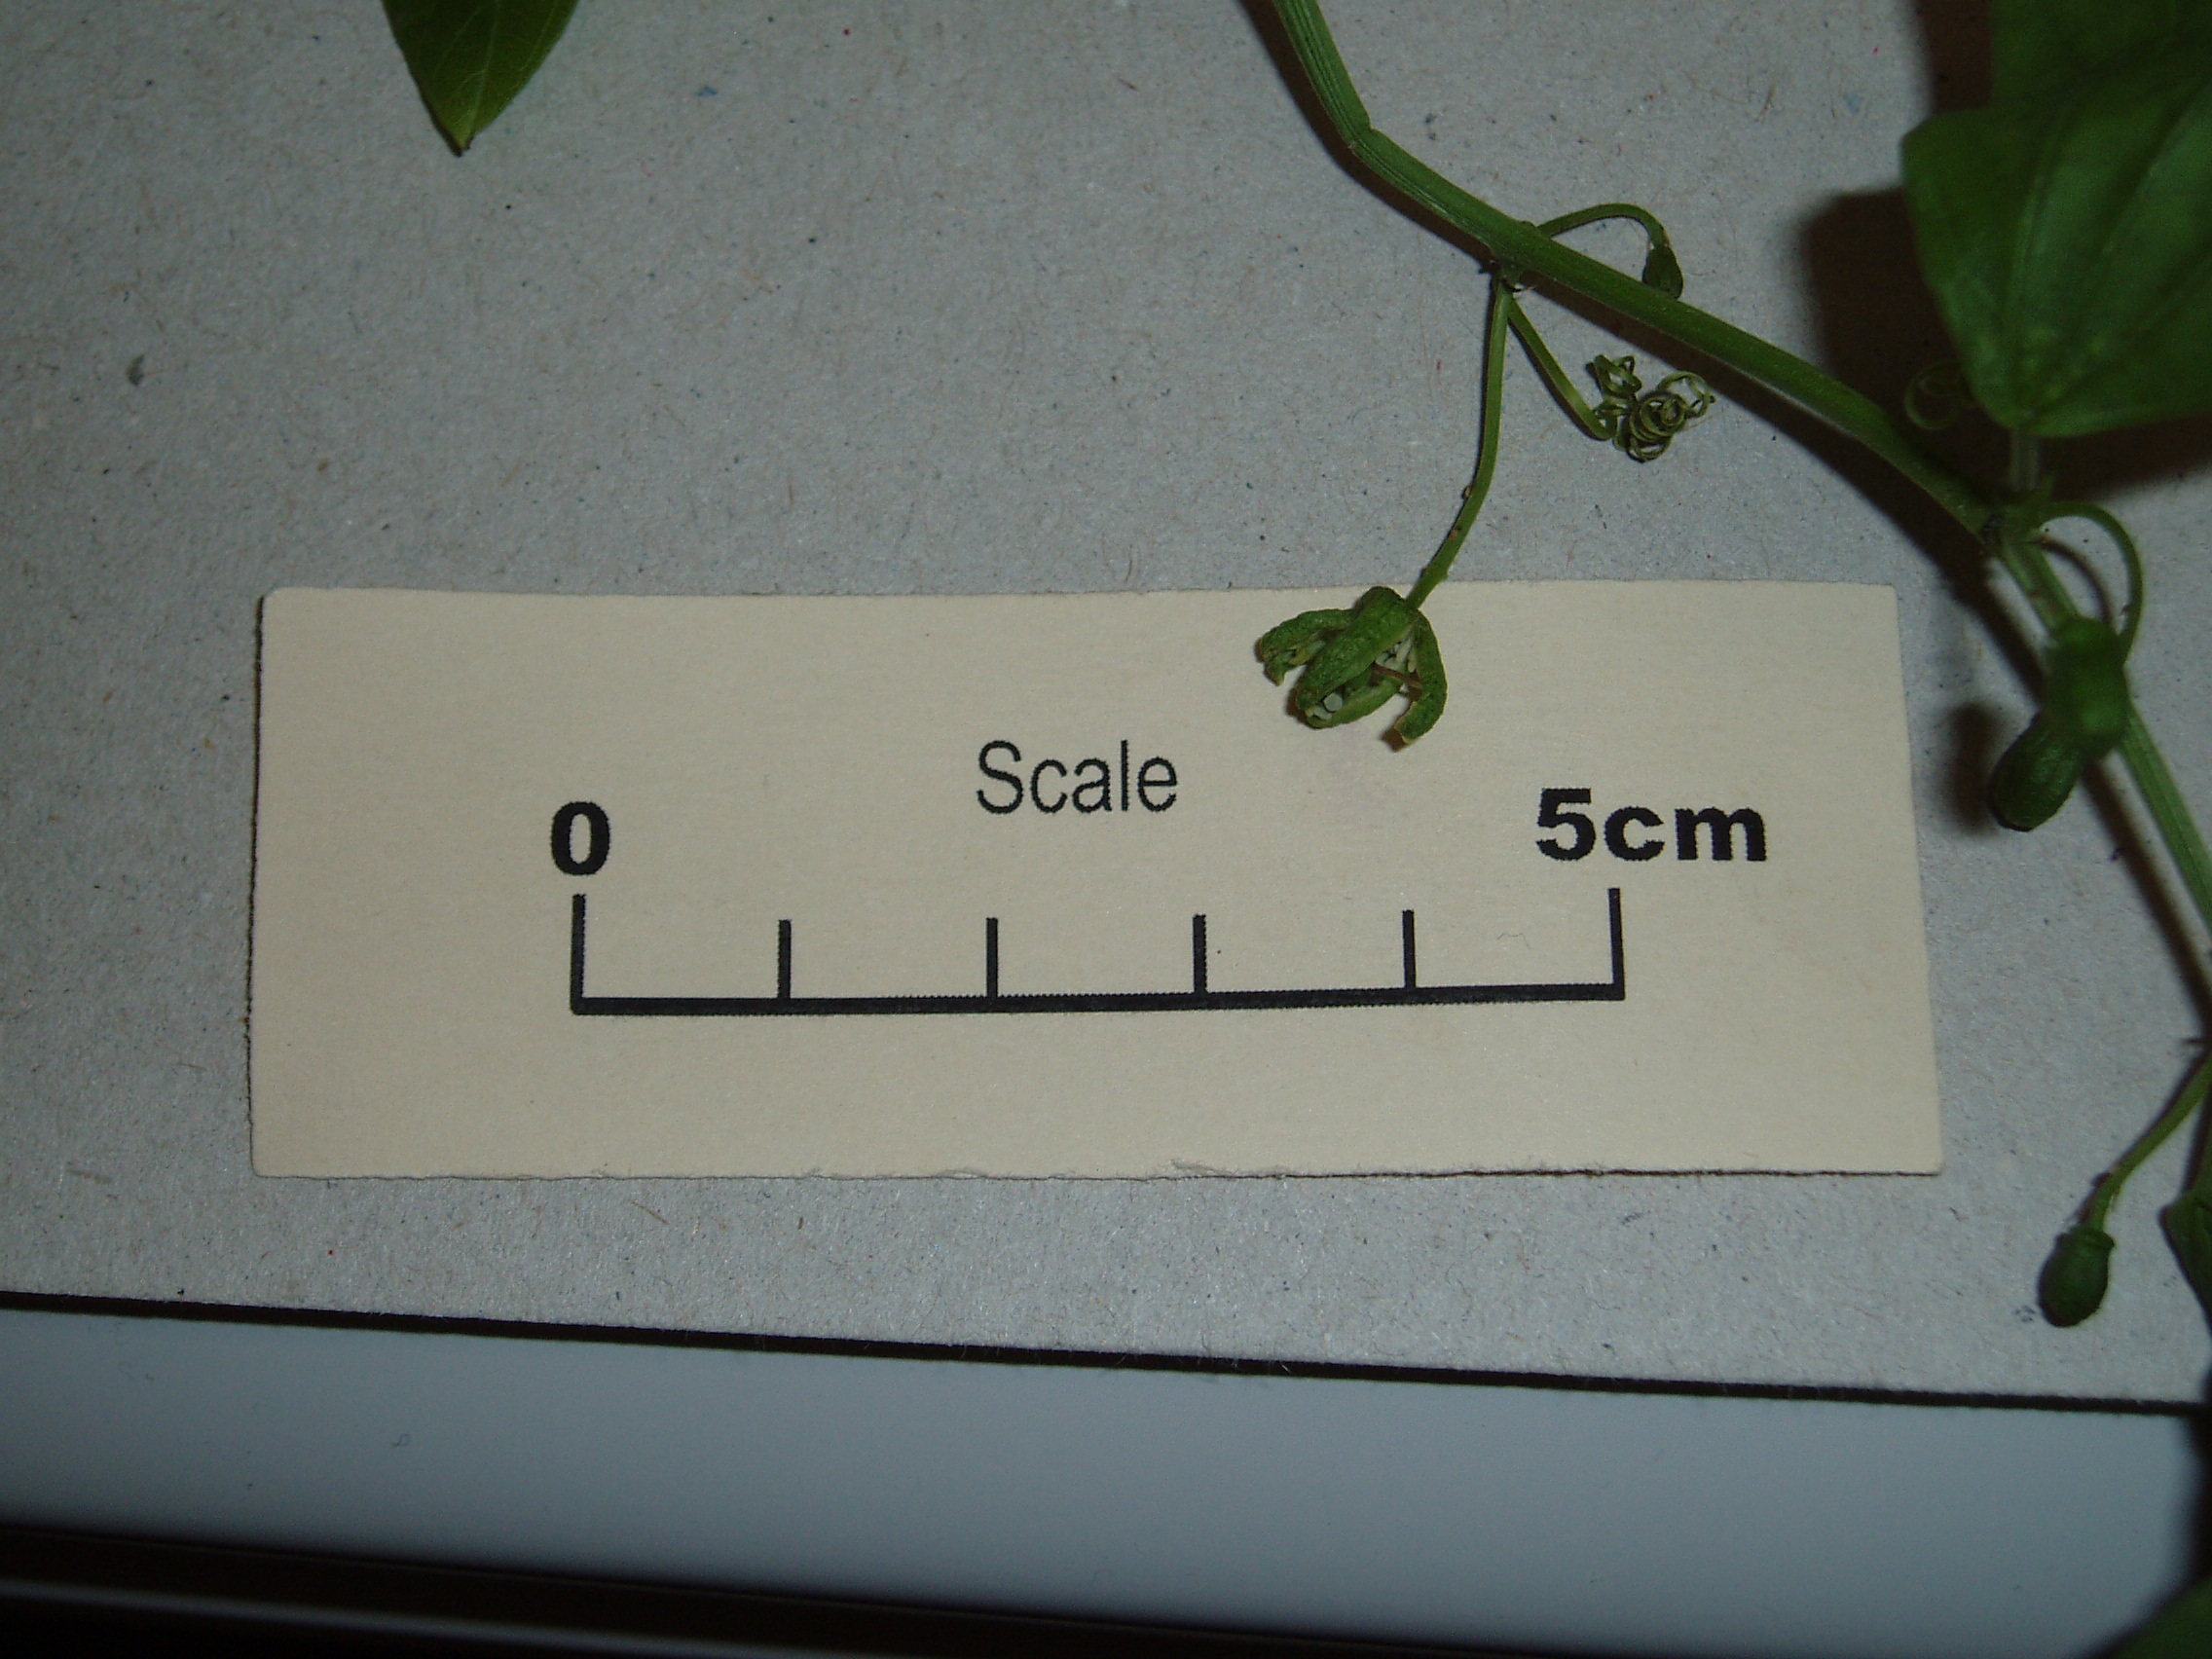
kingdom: Plantae
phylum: Tracheophyta
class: Magnoliopsida
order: Malpighiales
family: Passifloraceae
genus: Passiflora
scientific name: Passiflora apetala
